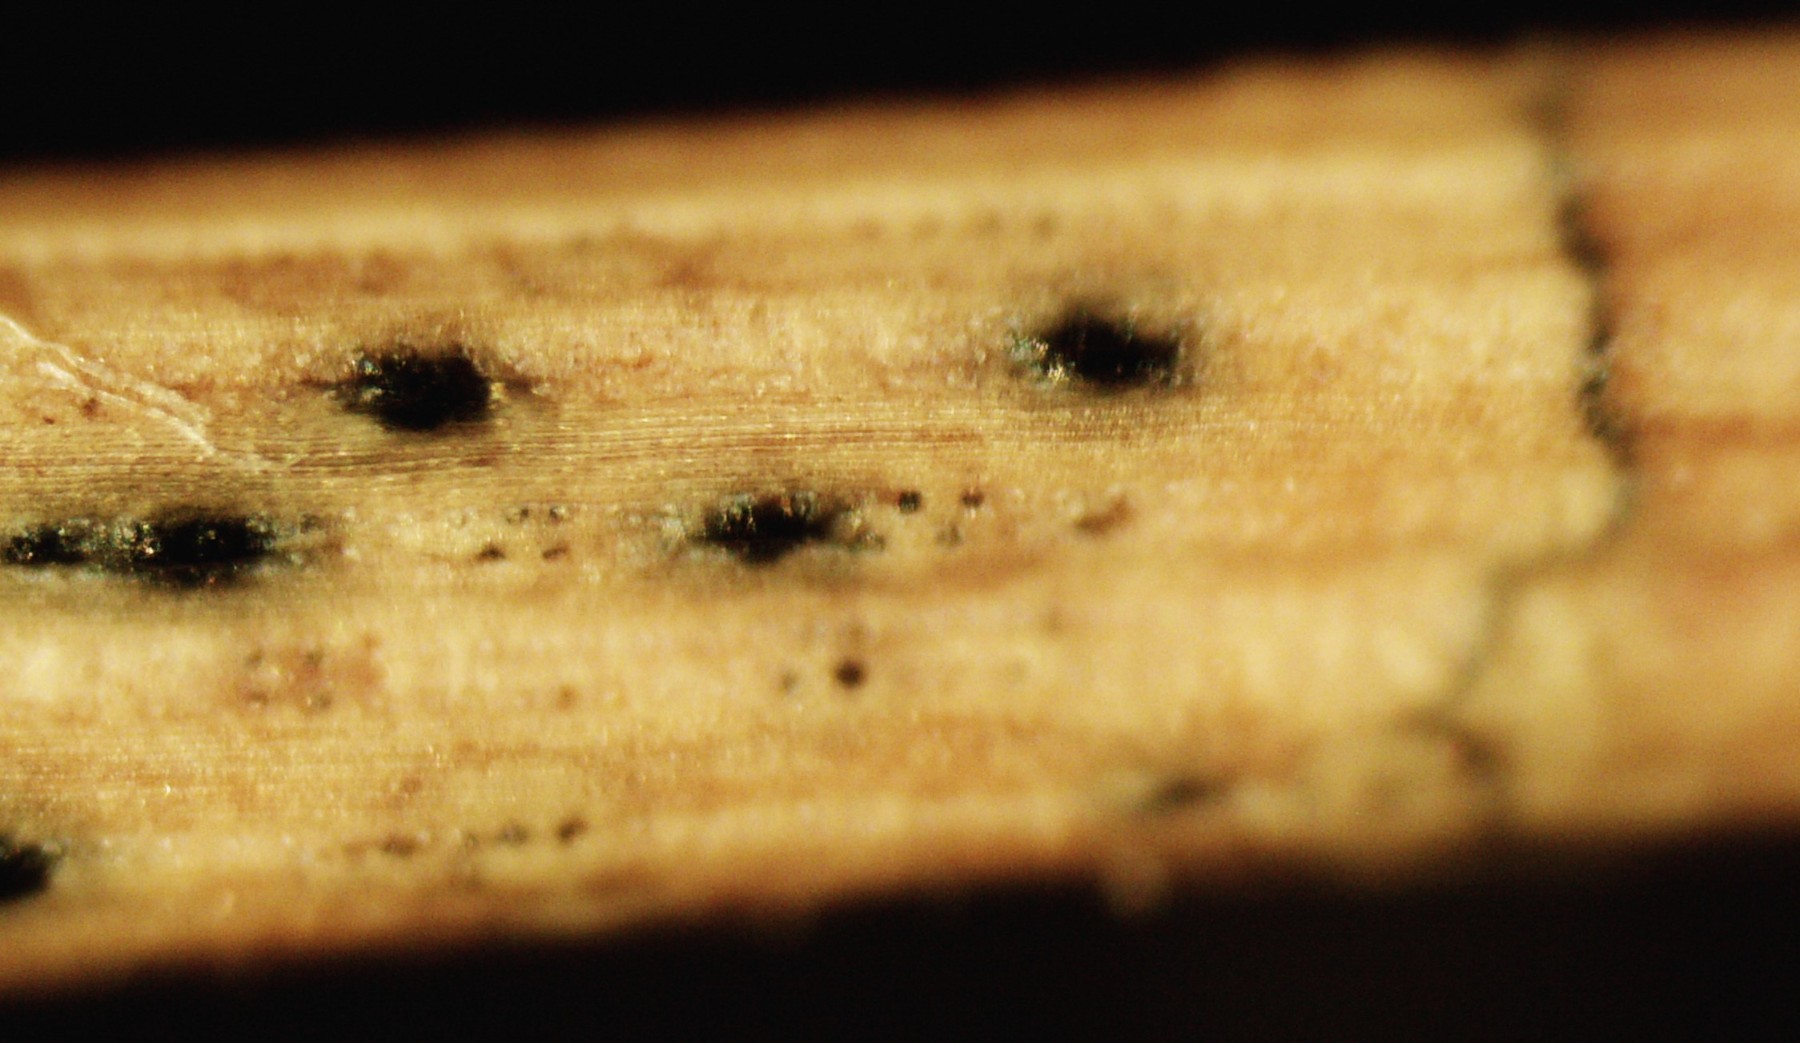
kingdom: Fungi
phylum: Ascomycota
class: Leotiomycetes
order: Rhytismatales
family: Rhytismataceae
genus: Lophodermium
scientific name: Lophodermium pinastri
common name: fyrre-fureplet
